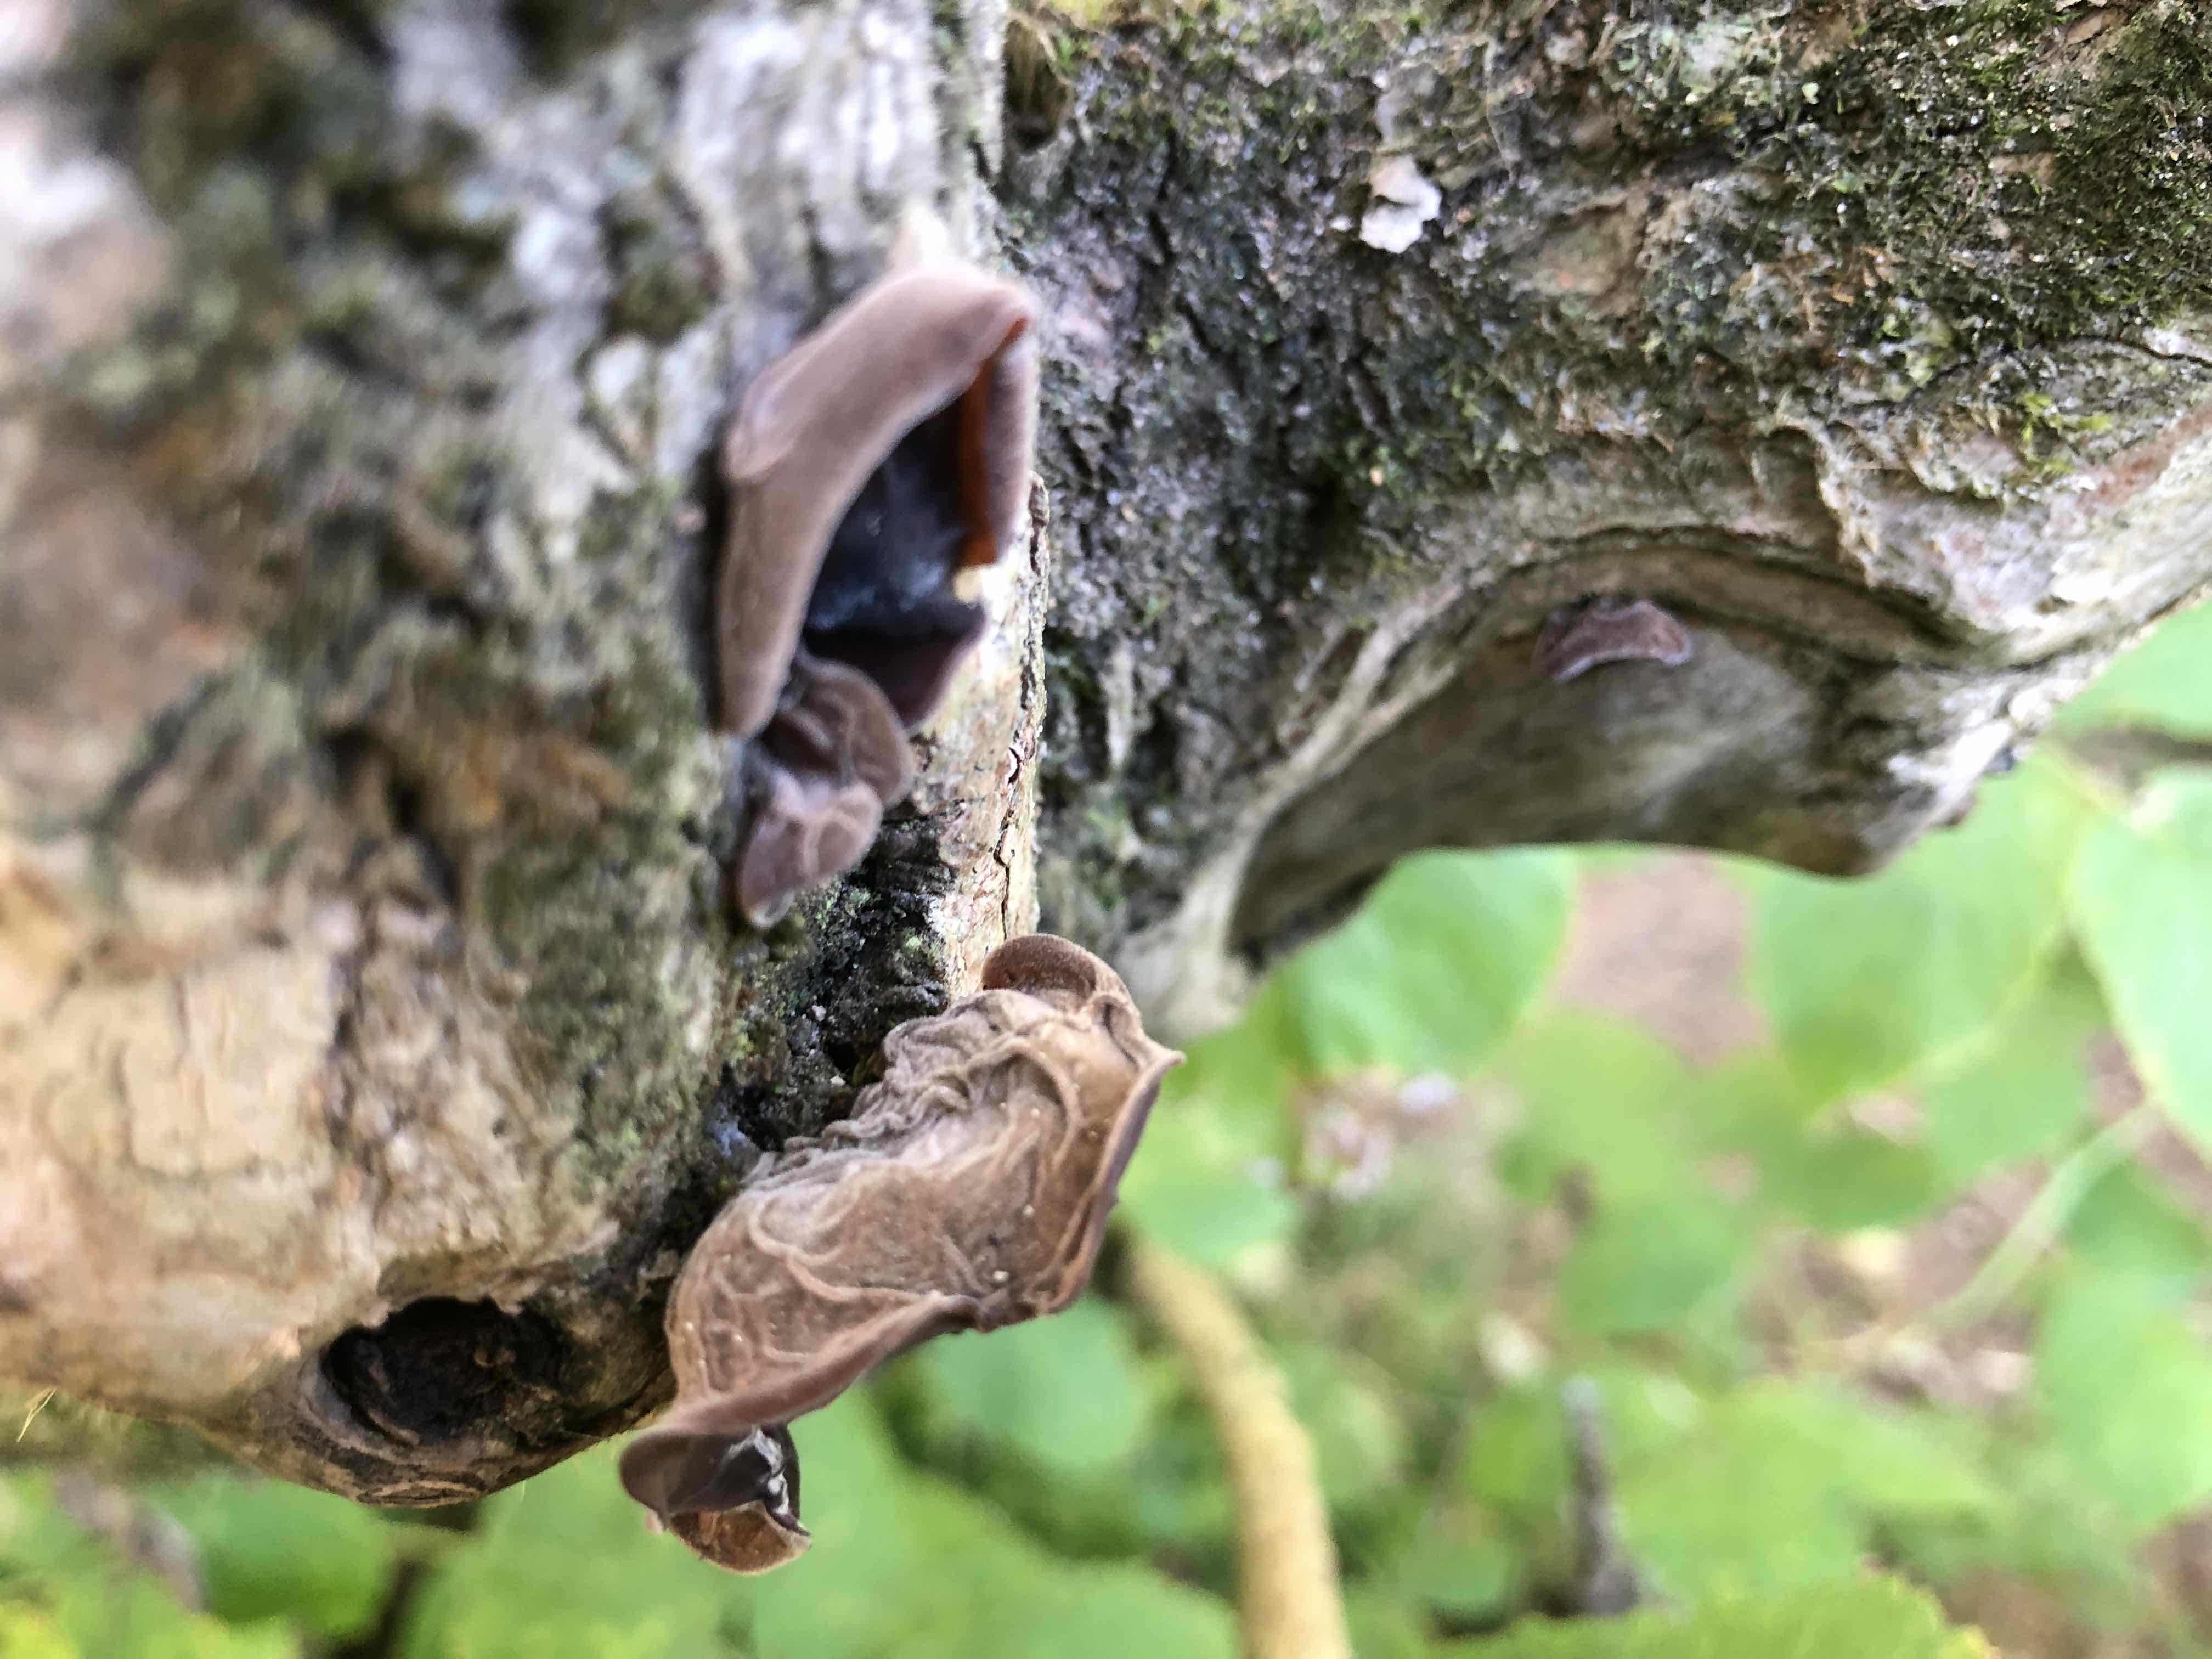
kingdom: Fungi
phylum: Basidiomycota
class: Agaricomycetes
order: Auriculariales
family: Auriculariaceae
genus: Auricularia
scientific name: Auricularia auricula-judae
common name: almindelig judasøre
